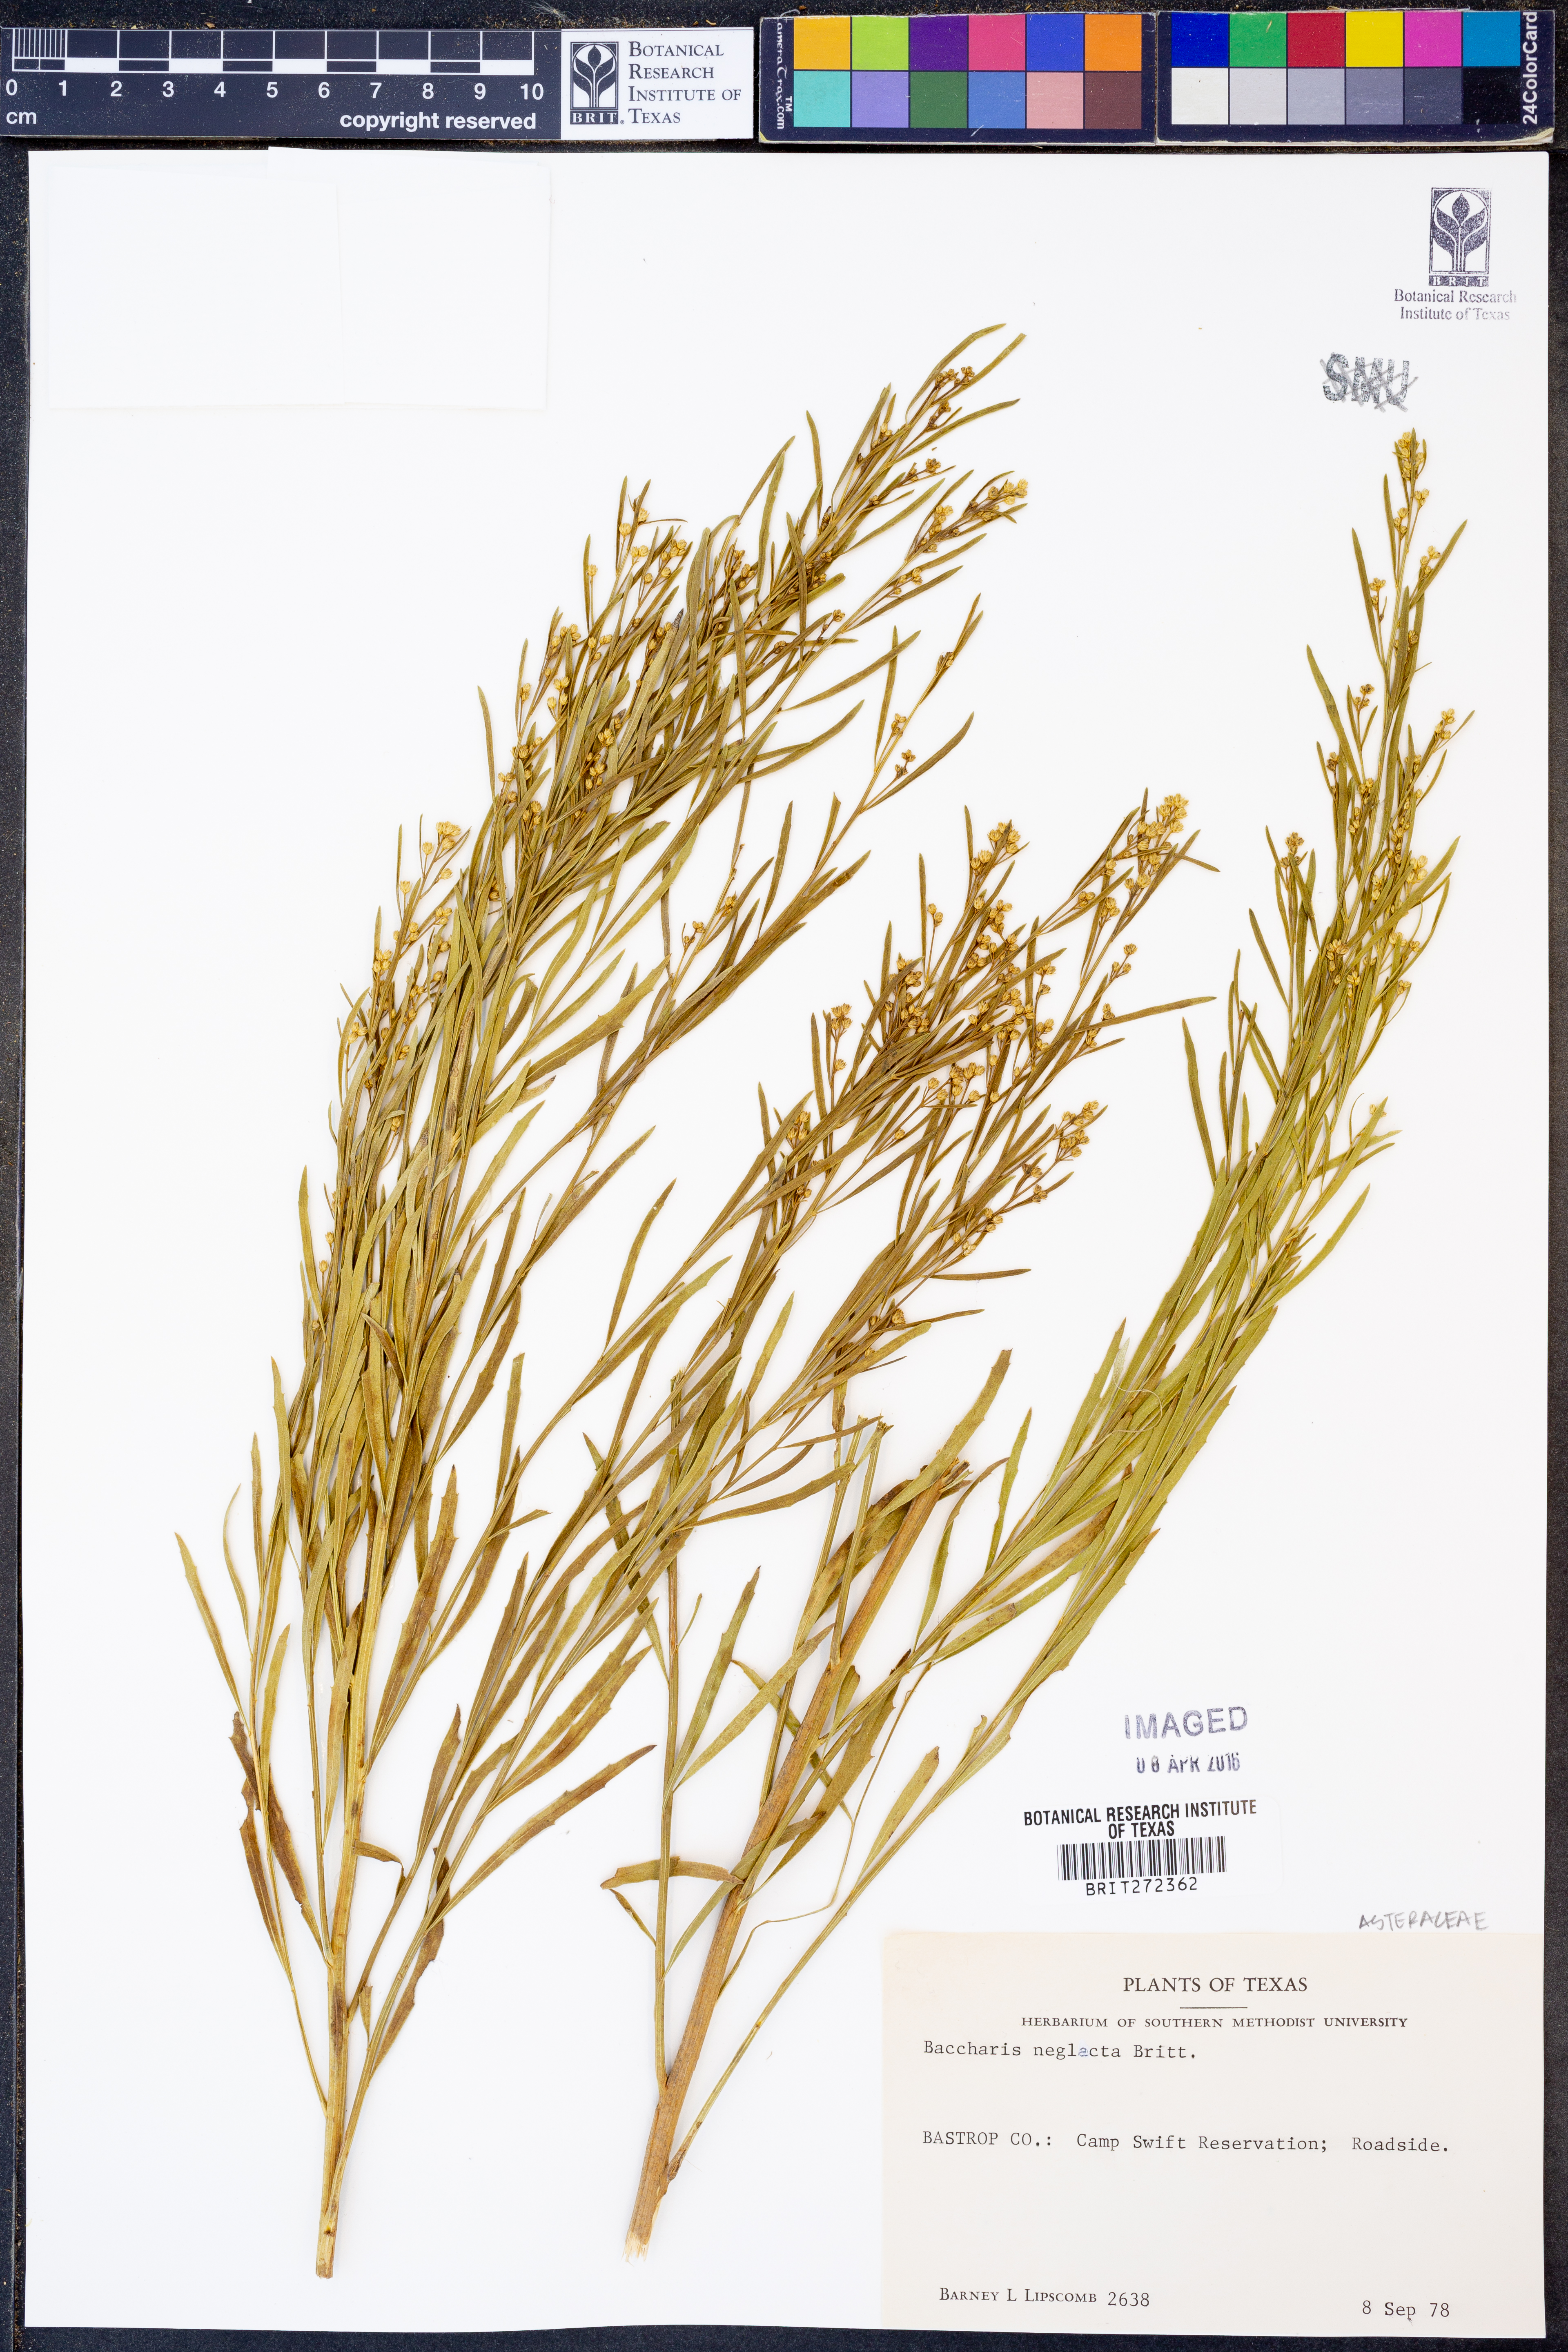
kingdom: Plantae
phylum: Tracheophyta
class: Magnoliopsida
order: Asterales
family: Asteraceae
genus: Baccharis
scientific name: Baccharis neglecta
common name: Roosevelt-weed
